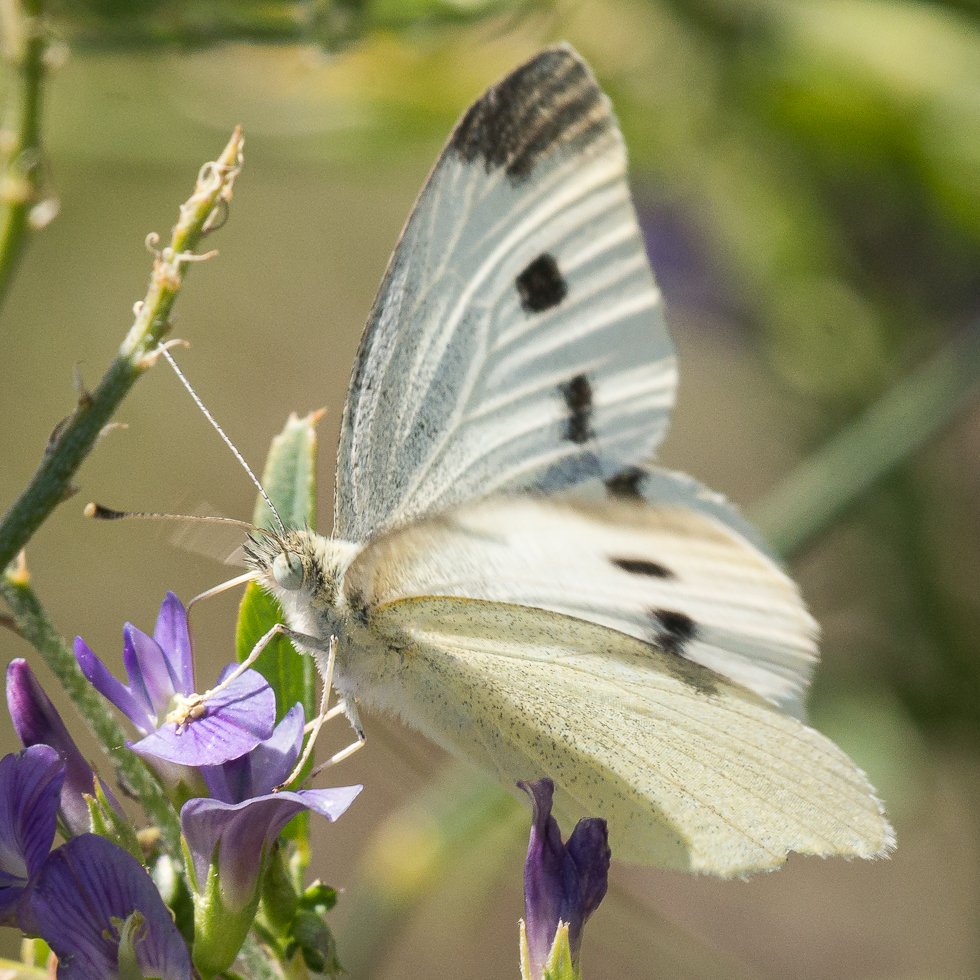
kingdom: Animalia
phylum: Arthropoda
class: Insecta
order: Lepidoptera
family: Pieridae
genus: Pieris
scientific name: Pieris rapae
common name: Cabbage White
